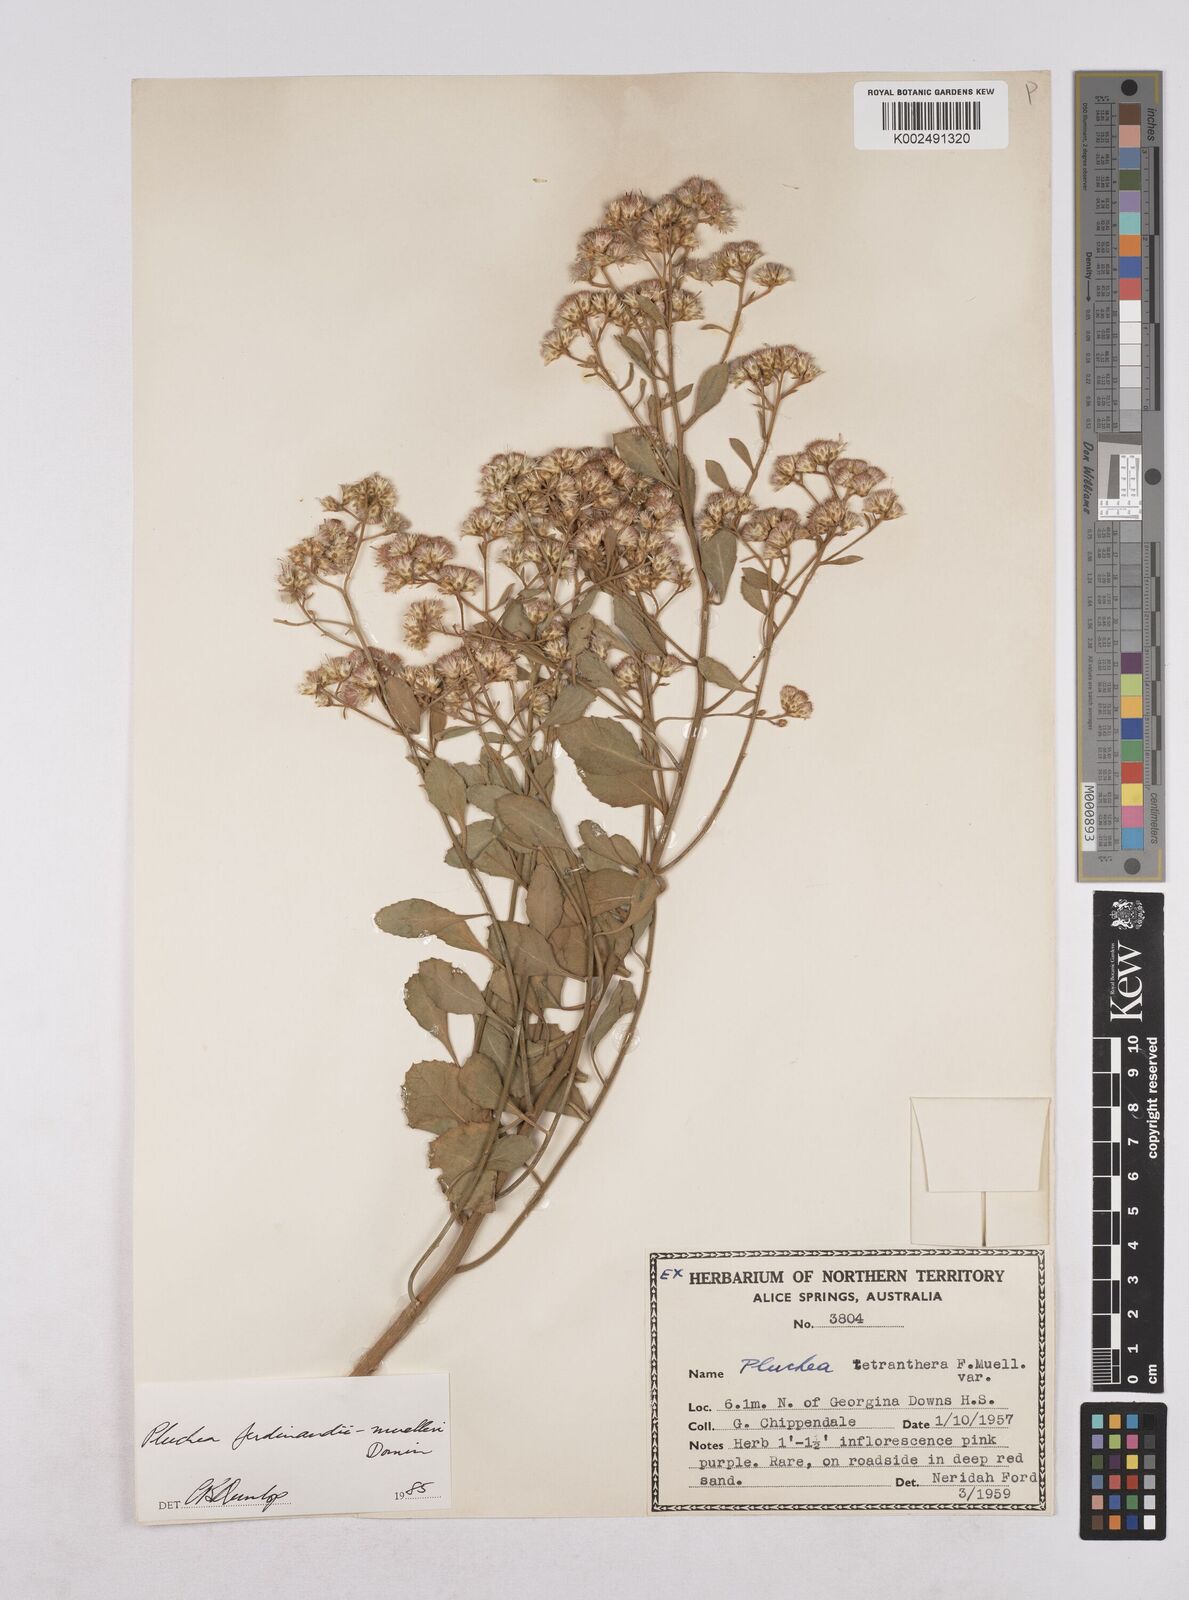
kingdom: Plantae
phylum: Tracheophyta
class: Magnoliopsida
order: Asterales
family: Asteraceae
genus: Pluchea
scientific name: Pluchea ferdinandi-muelleri
